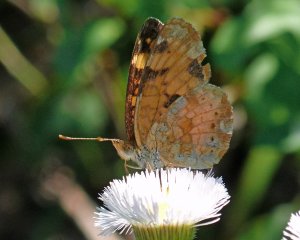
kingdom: Animalia
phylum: Arthropoda
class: Insecta
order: Lepidoptera
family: Nymphalidae
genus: Phyciodes
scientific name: Phyciodes tharos
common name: Field Crescent
